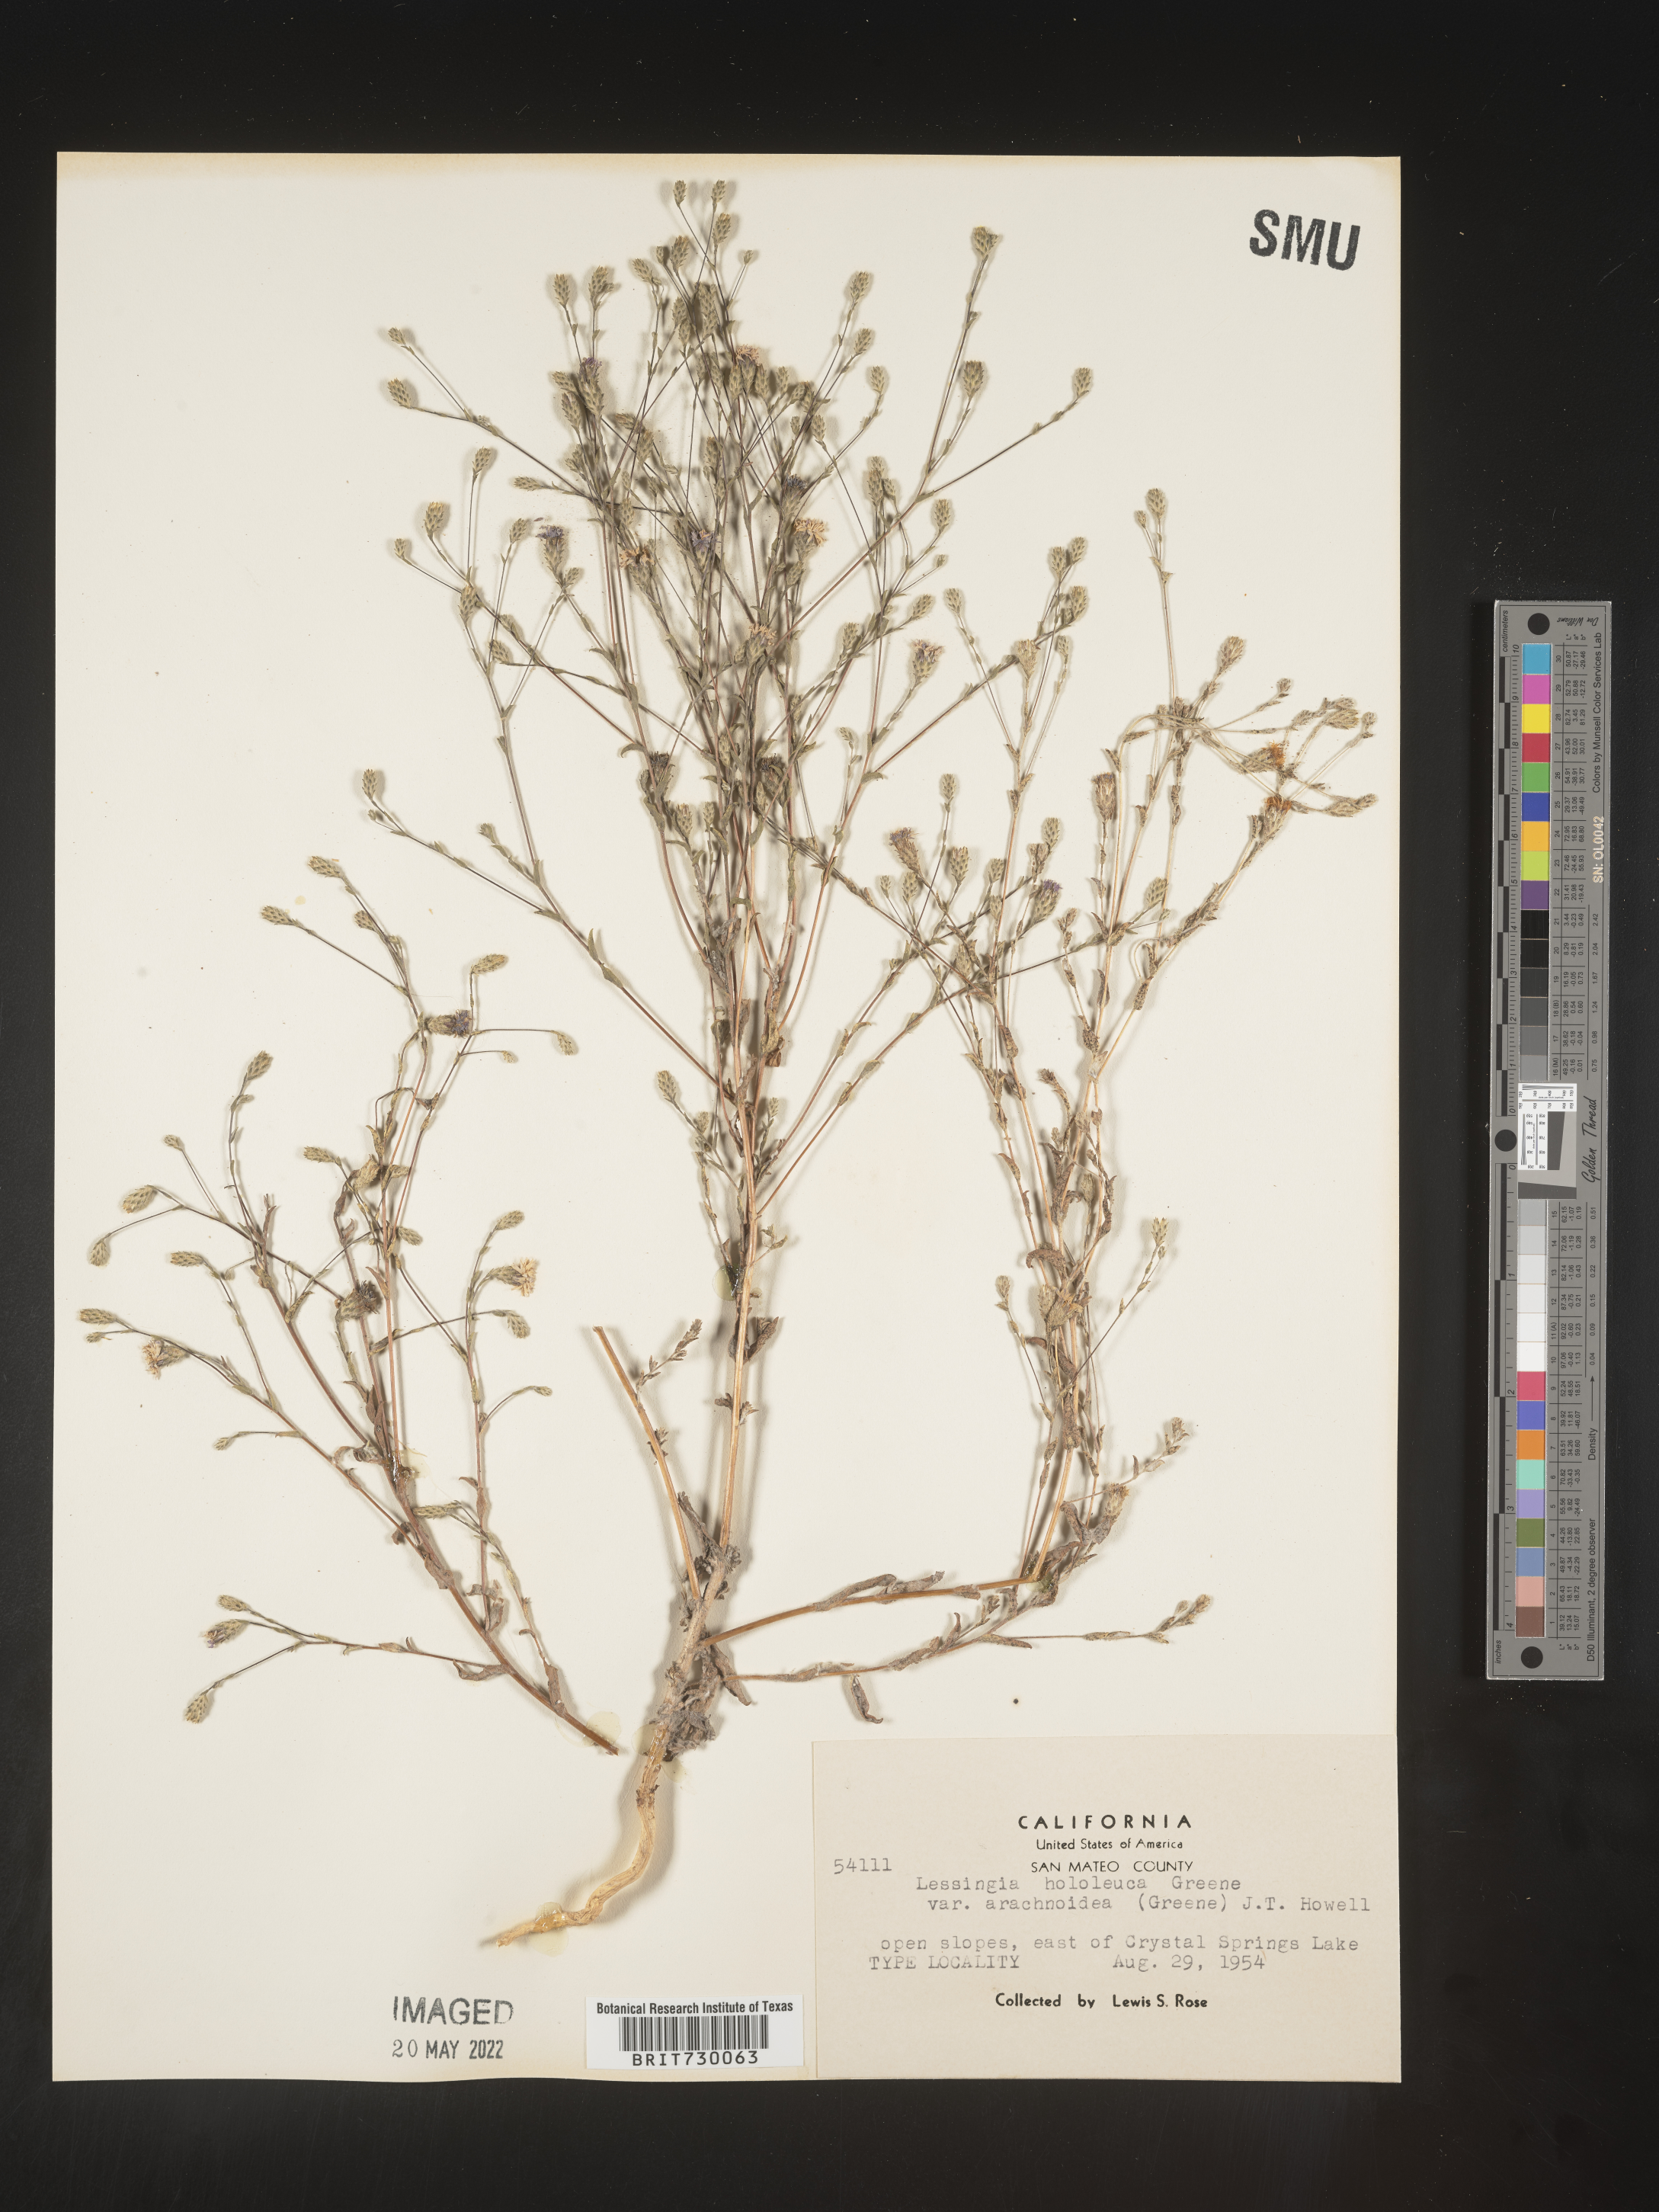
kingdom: Plantae
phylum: Tracheophyta
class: Magnoliopsida
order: Asterales
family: Asteraceae
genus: Lessingia
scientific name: Lessingia
